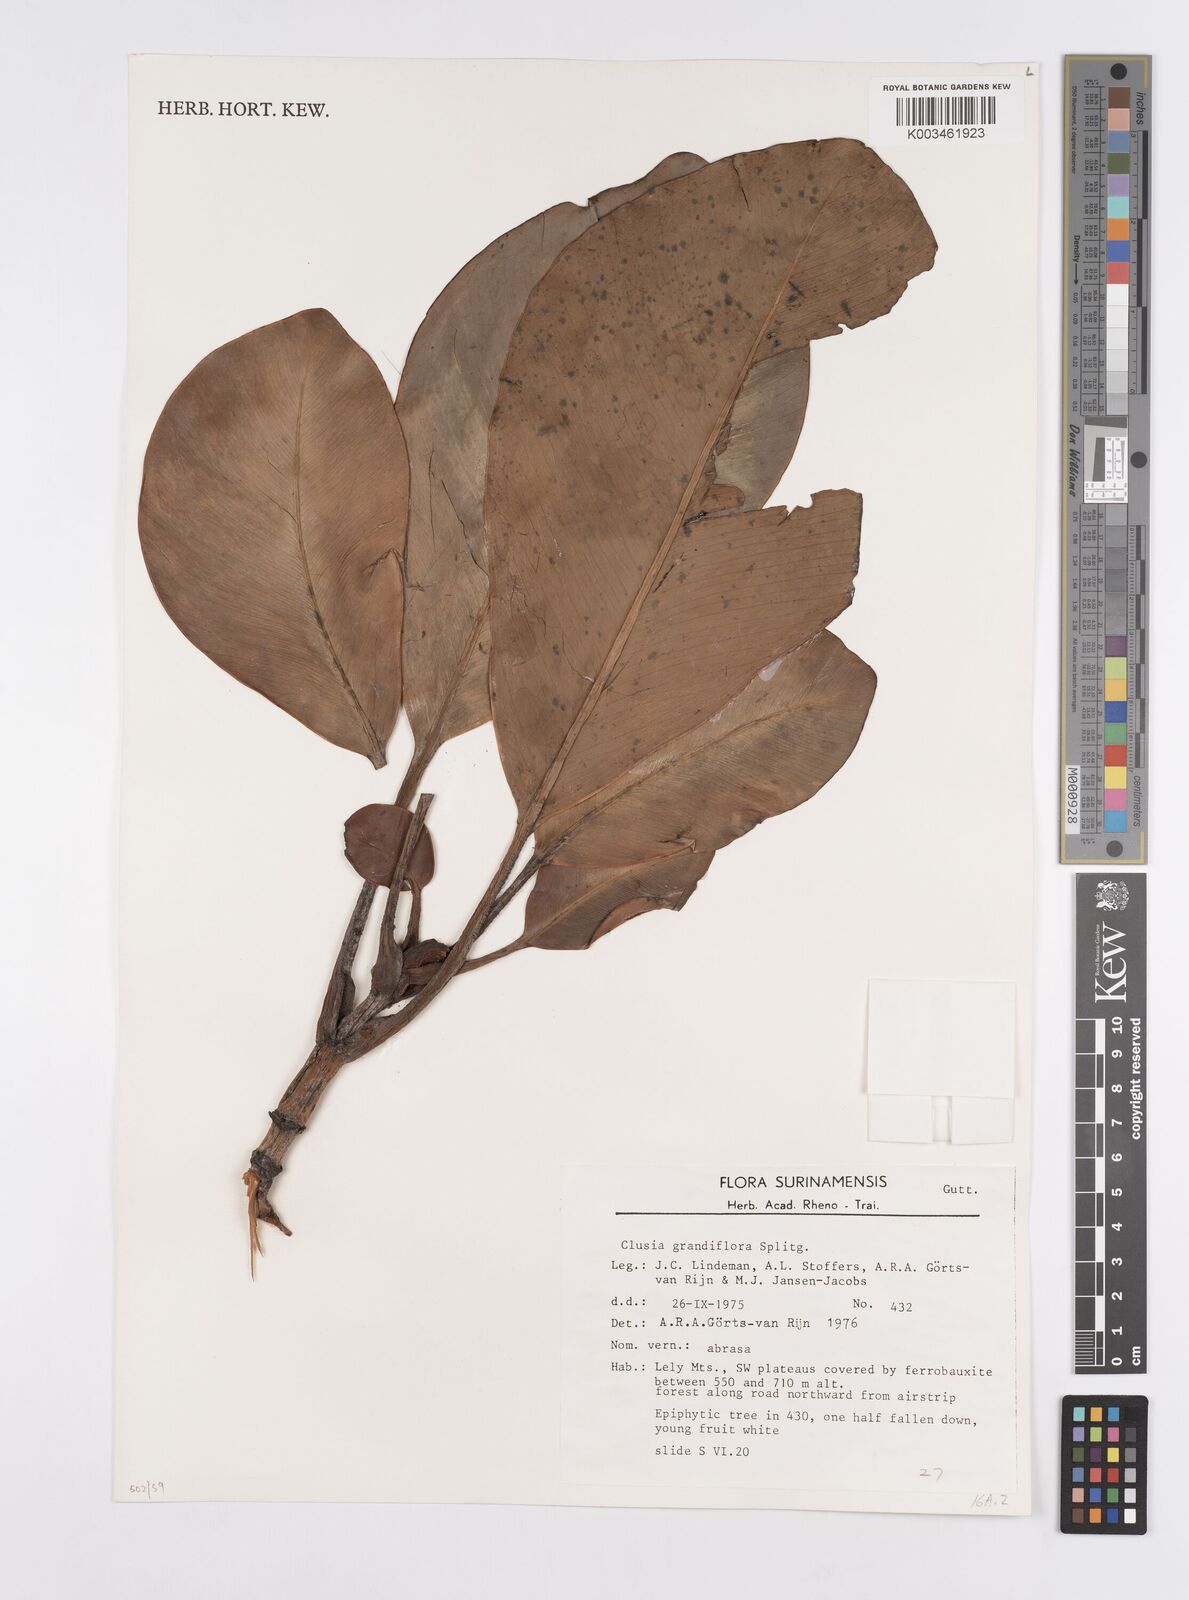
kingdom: Plantae
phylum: Tracheophyta
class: Magnoliopsida
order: Malpighiales
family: Clusiaceae
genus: Clusia
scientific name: Clusia grandiflora
